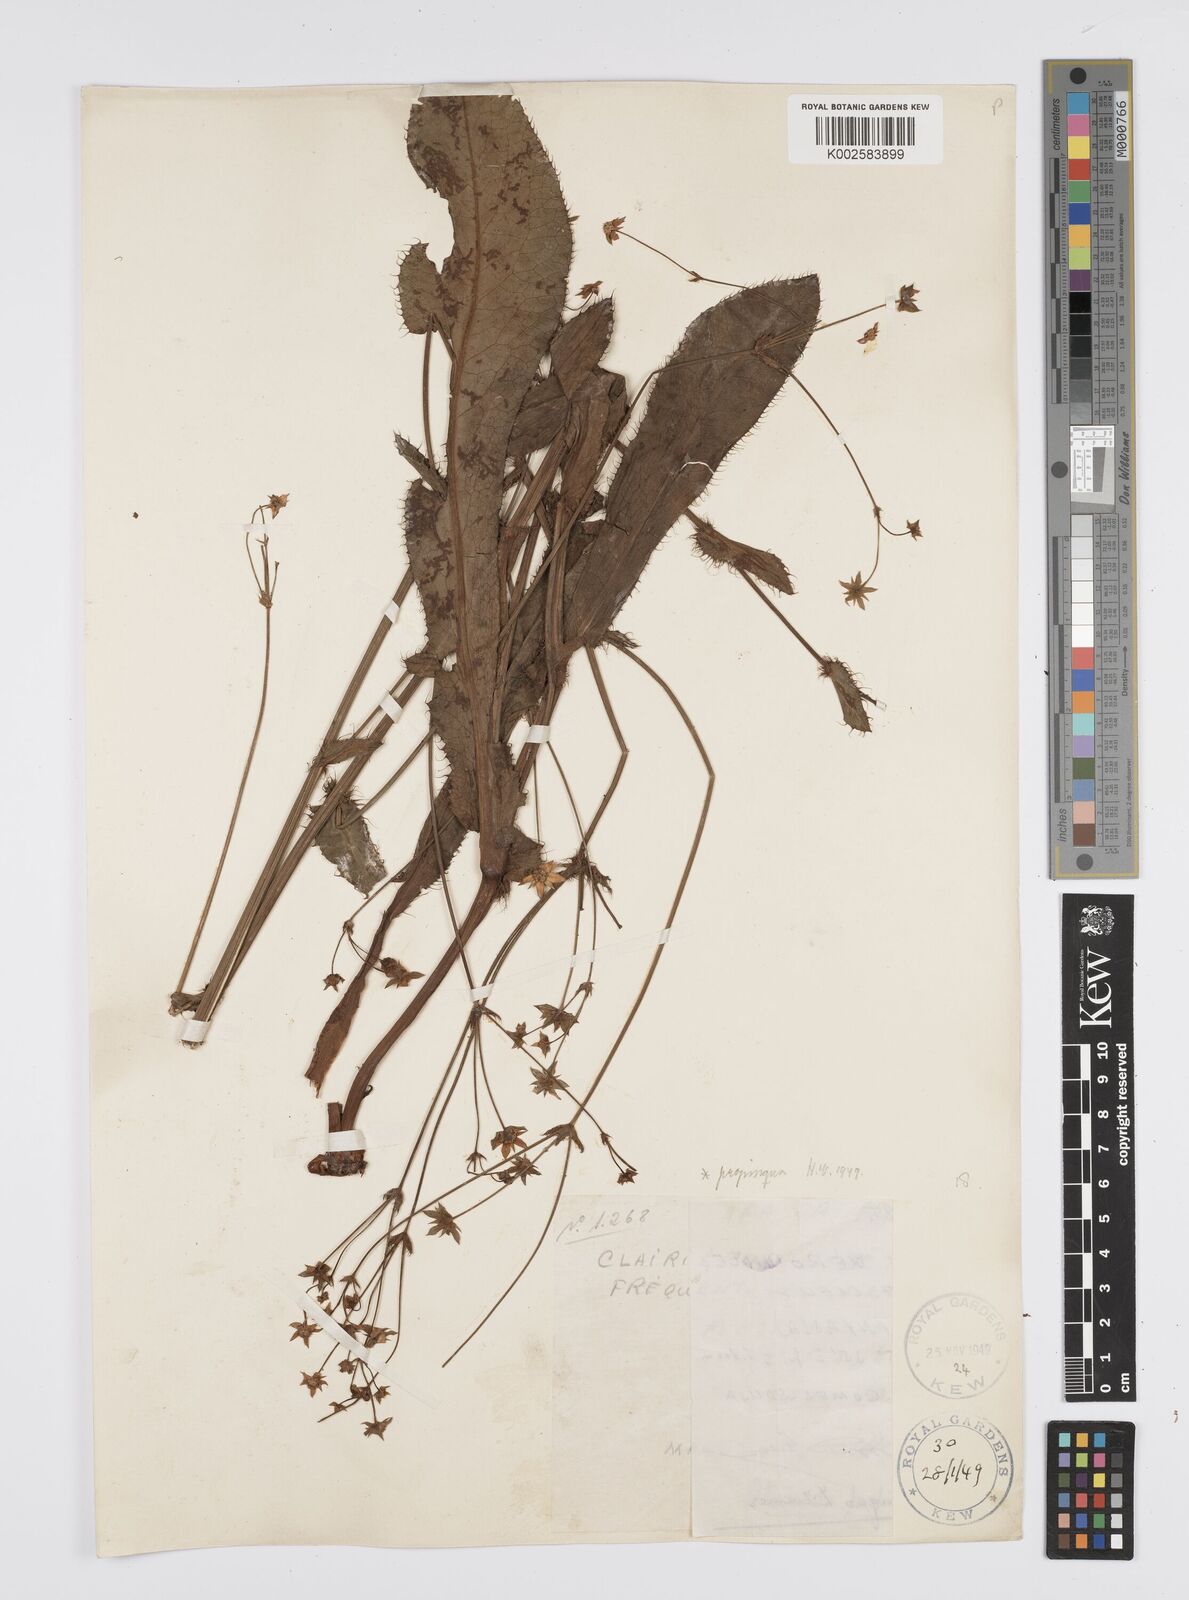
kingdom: Plantae
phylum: Tracheophyta
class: Magnoliopsida
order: Apiales
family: Apiaceae
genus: Alepidea
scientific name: Alepidea
